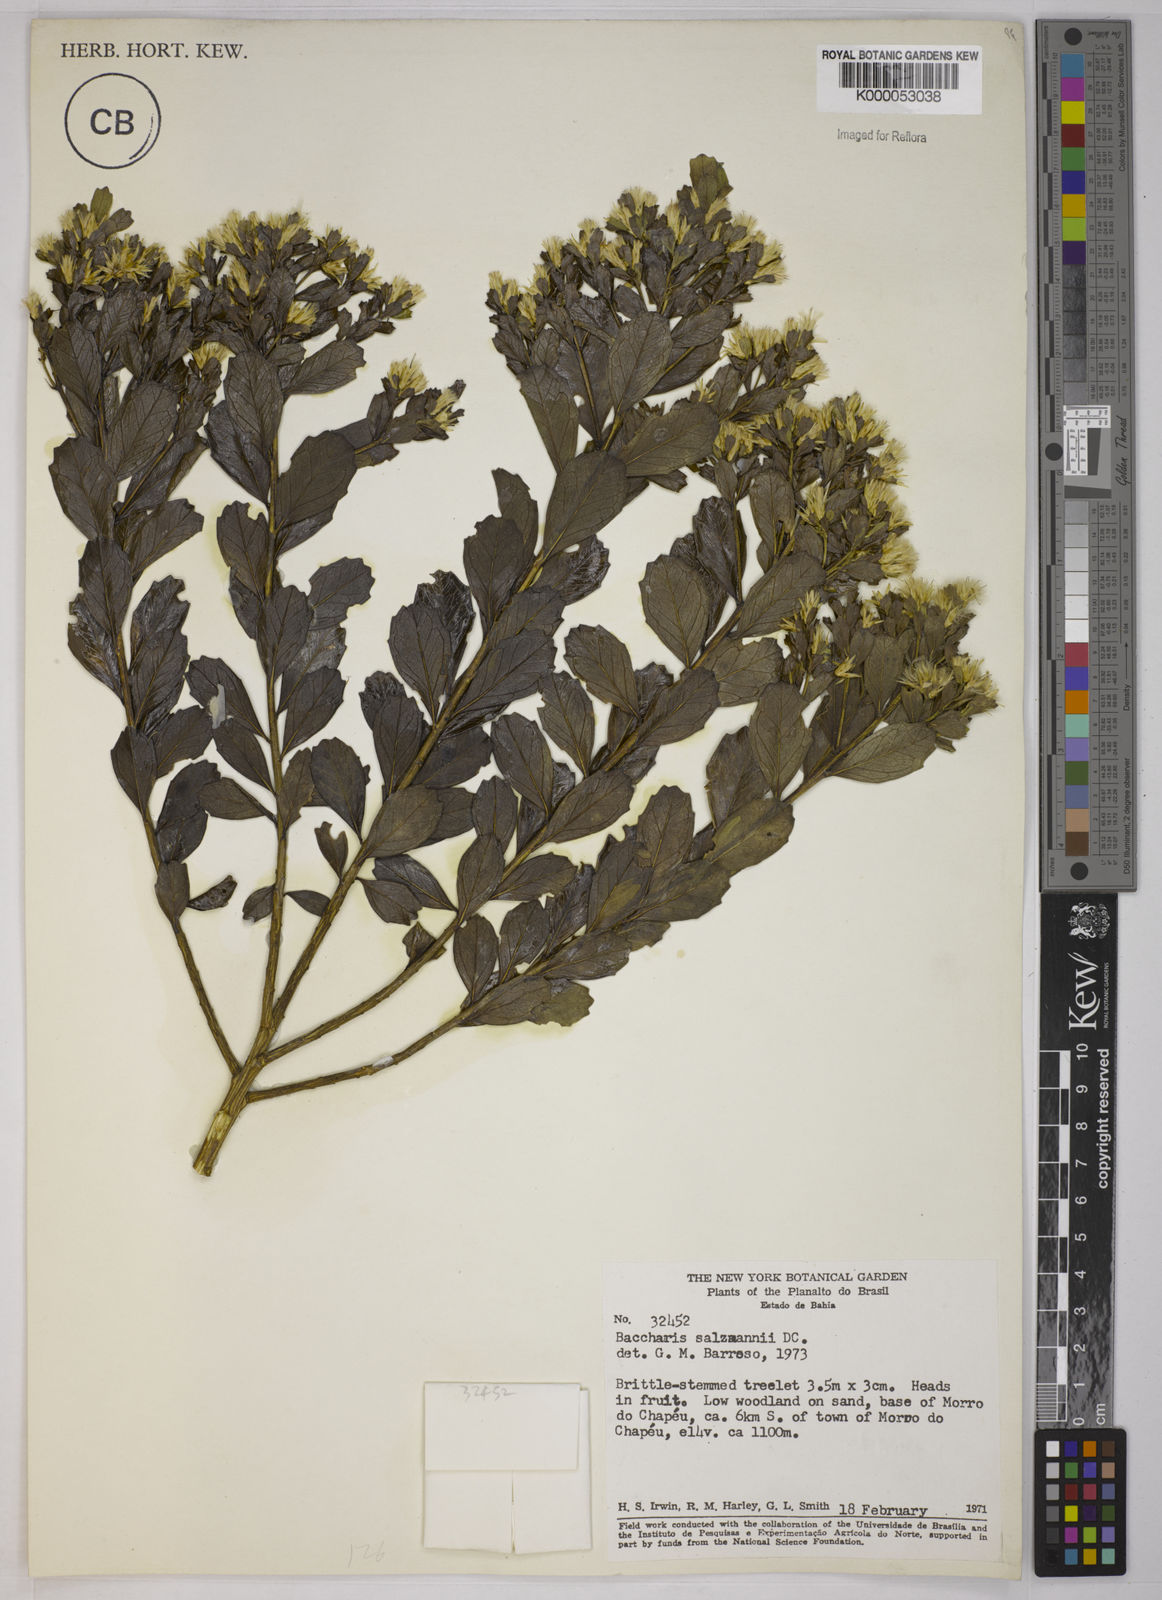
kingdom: Plantae
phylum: Tracheophyta
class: Magnoliopsida
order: Asterales
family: Asteraceae
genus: Baccharis
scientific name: Baccharis retusa
